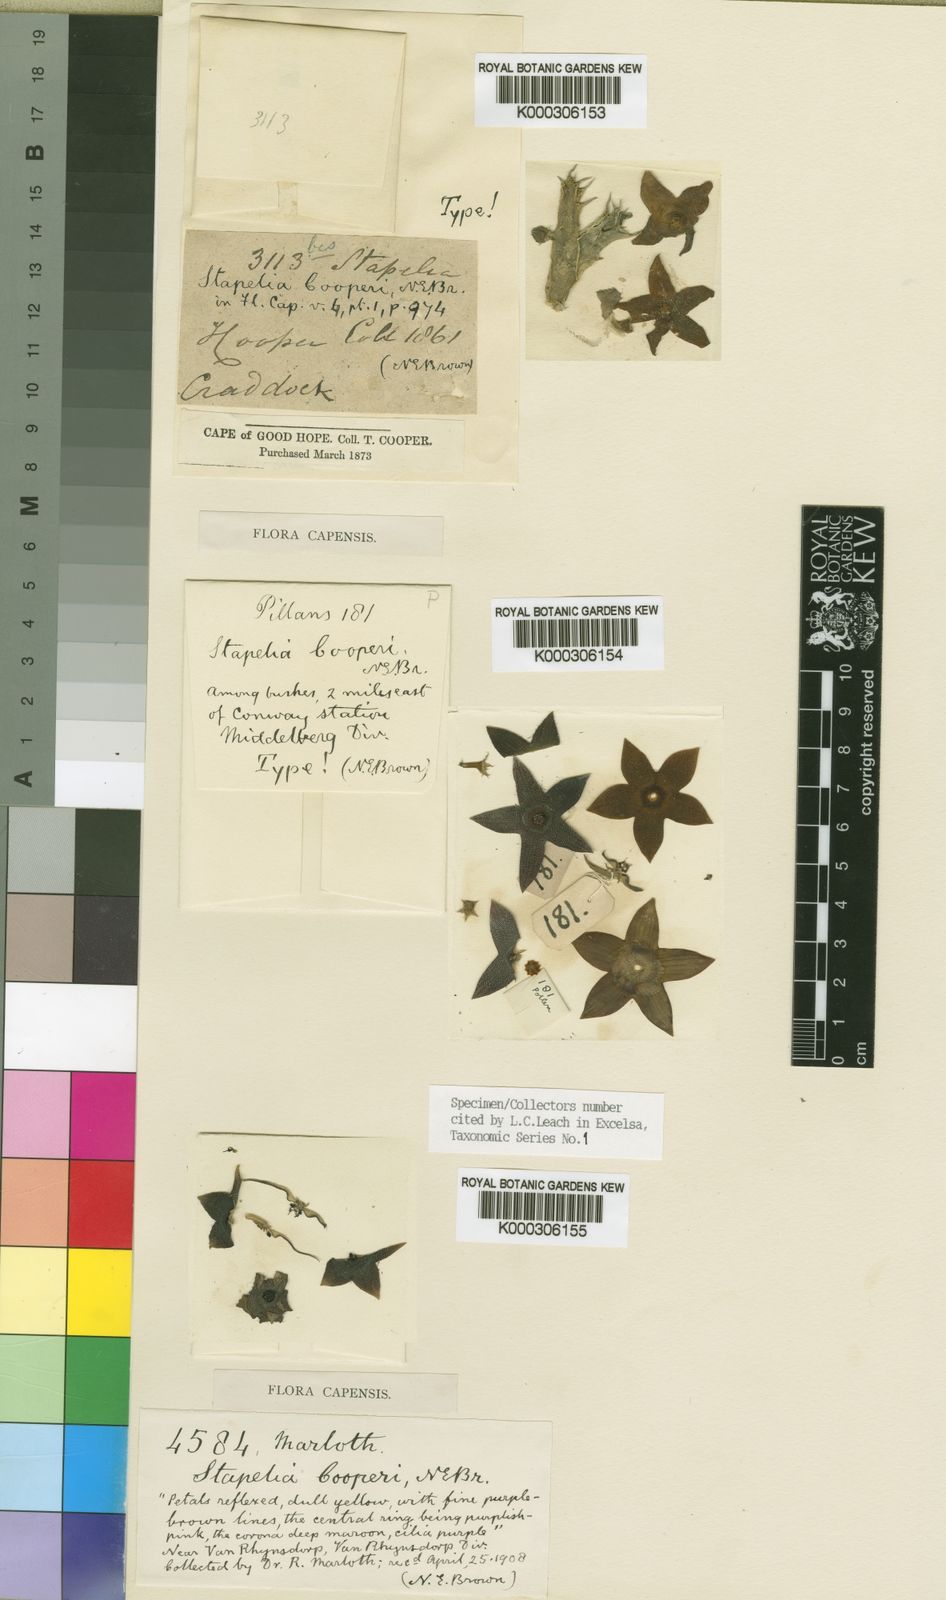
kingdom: Plantae
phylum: Tracheophyta
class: Magnoliopsida
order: Gentianales
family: Apocynaceae
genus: Ceropegia
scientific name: Ceropegia cooperi
